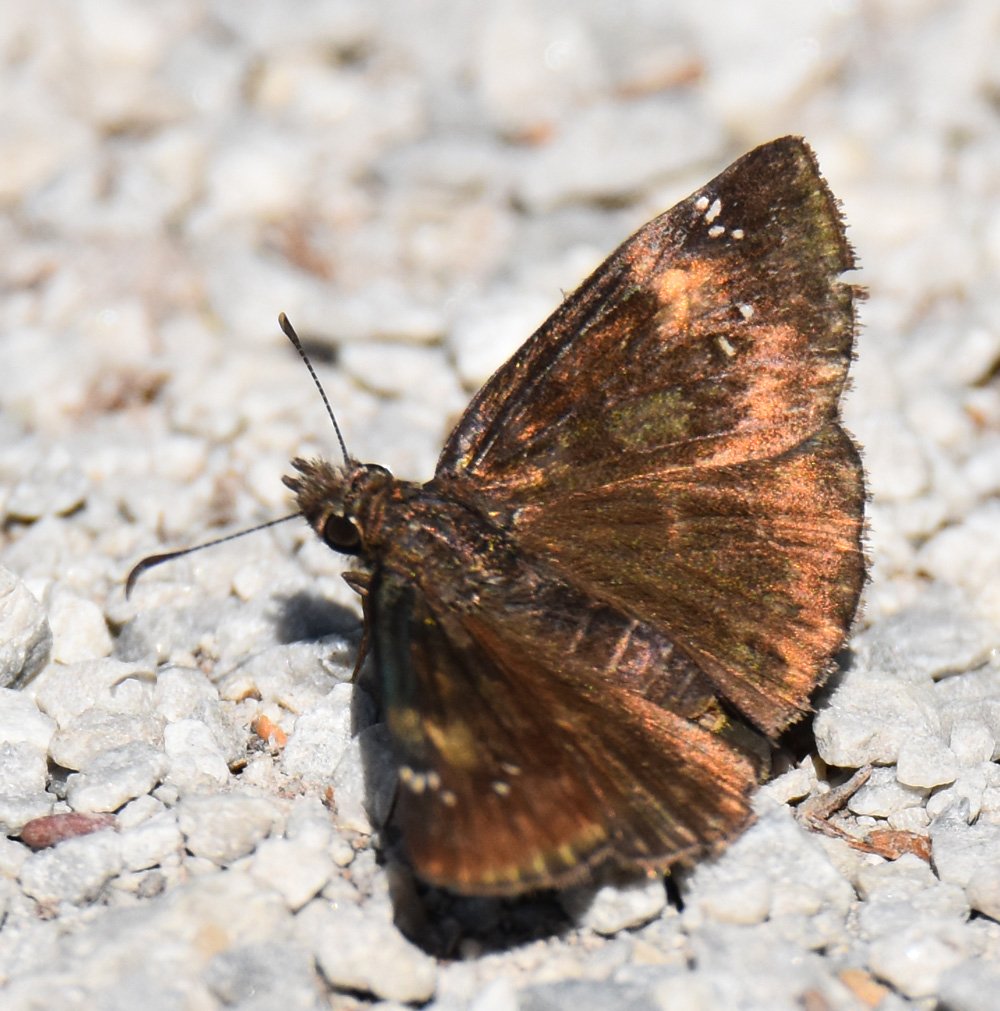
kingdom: Animalia
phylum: Arthropoda
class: Insecta
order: Lepidoptera
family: Hesperiidae
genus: Gesta
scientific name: Gesta
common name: Wild Indigo Duskywing
